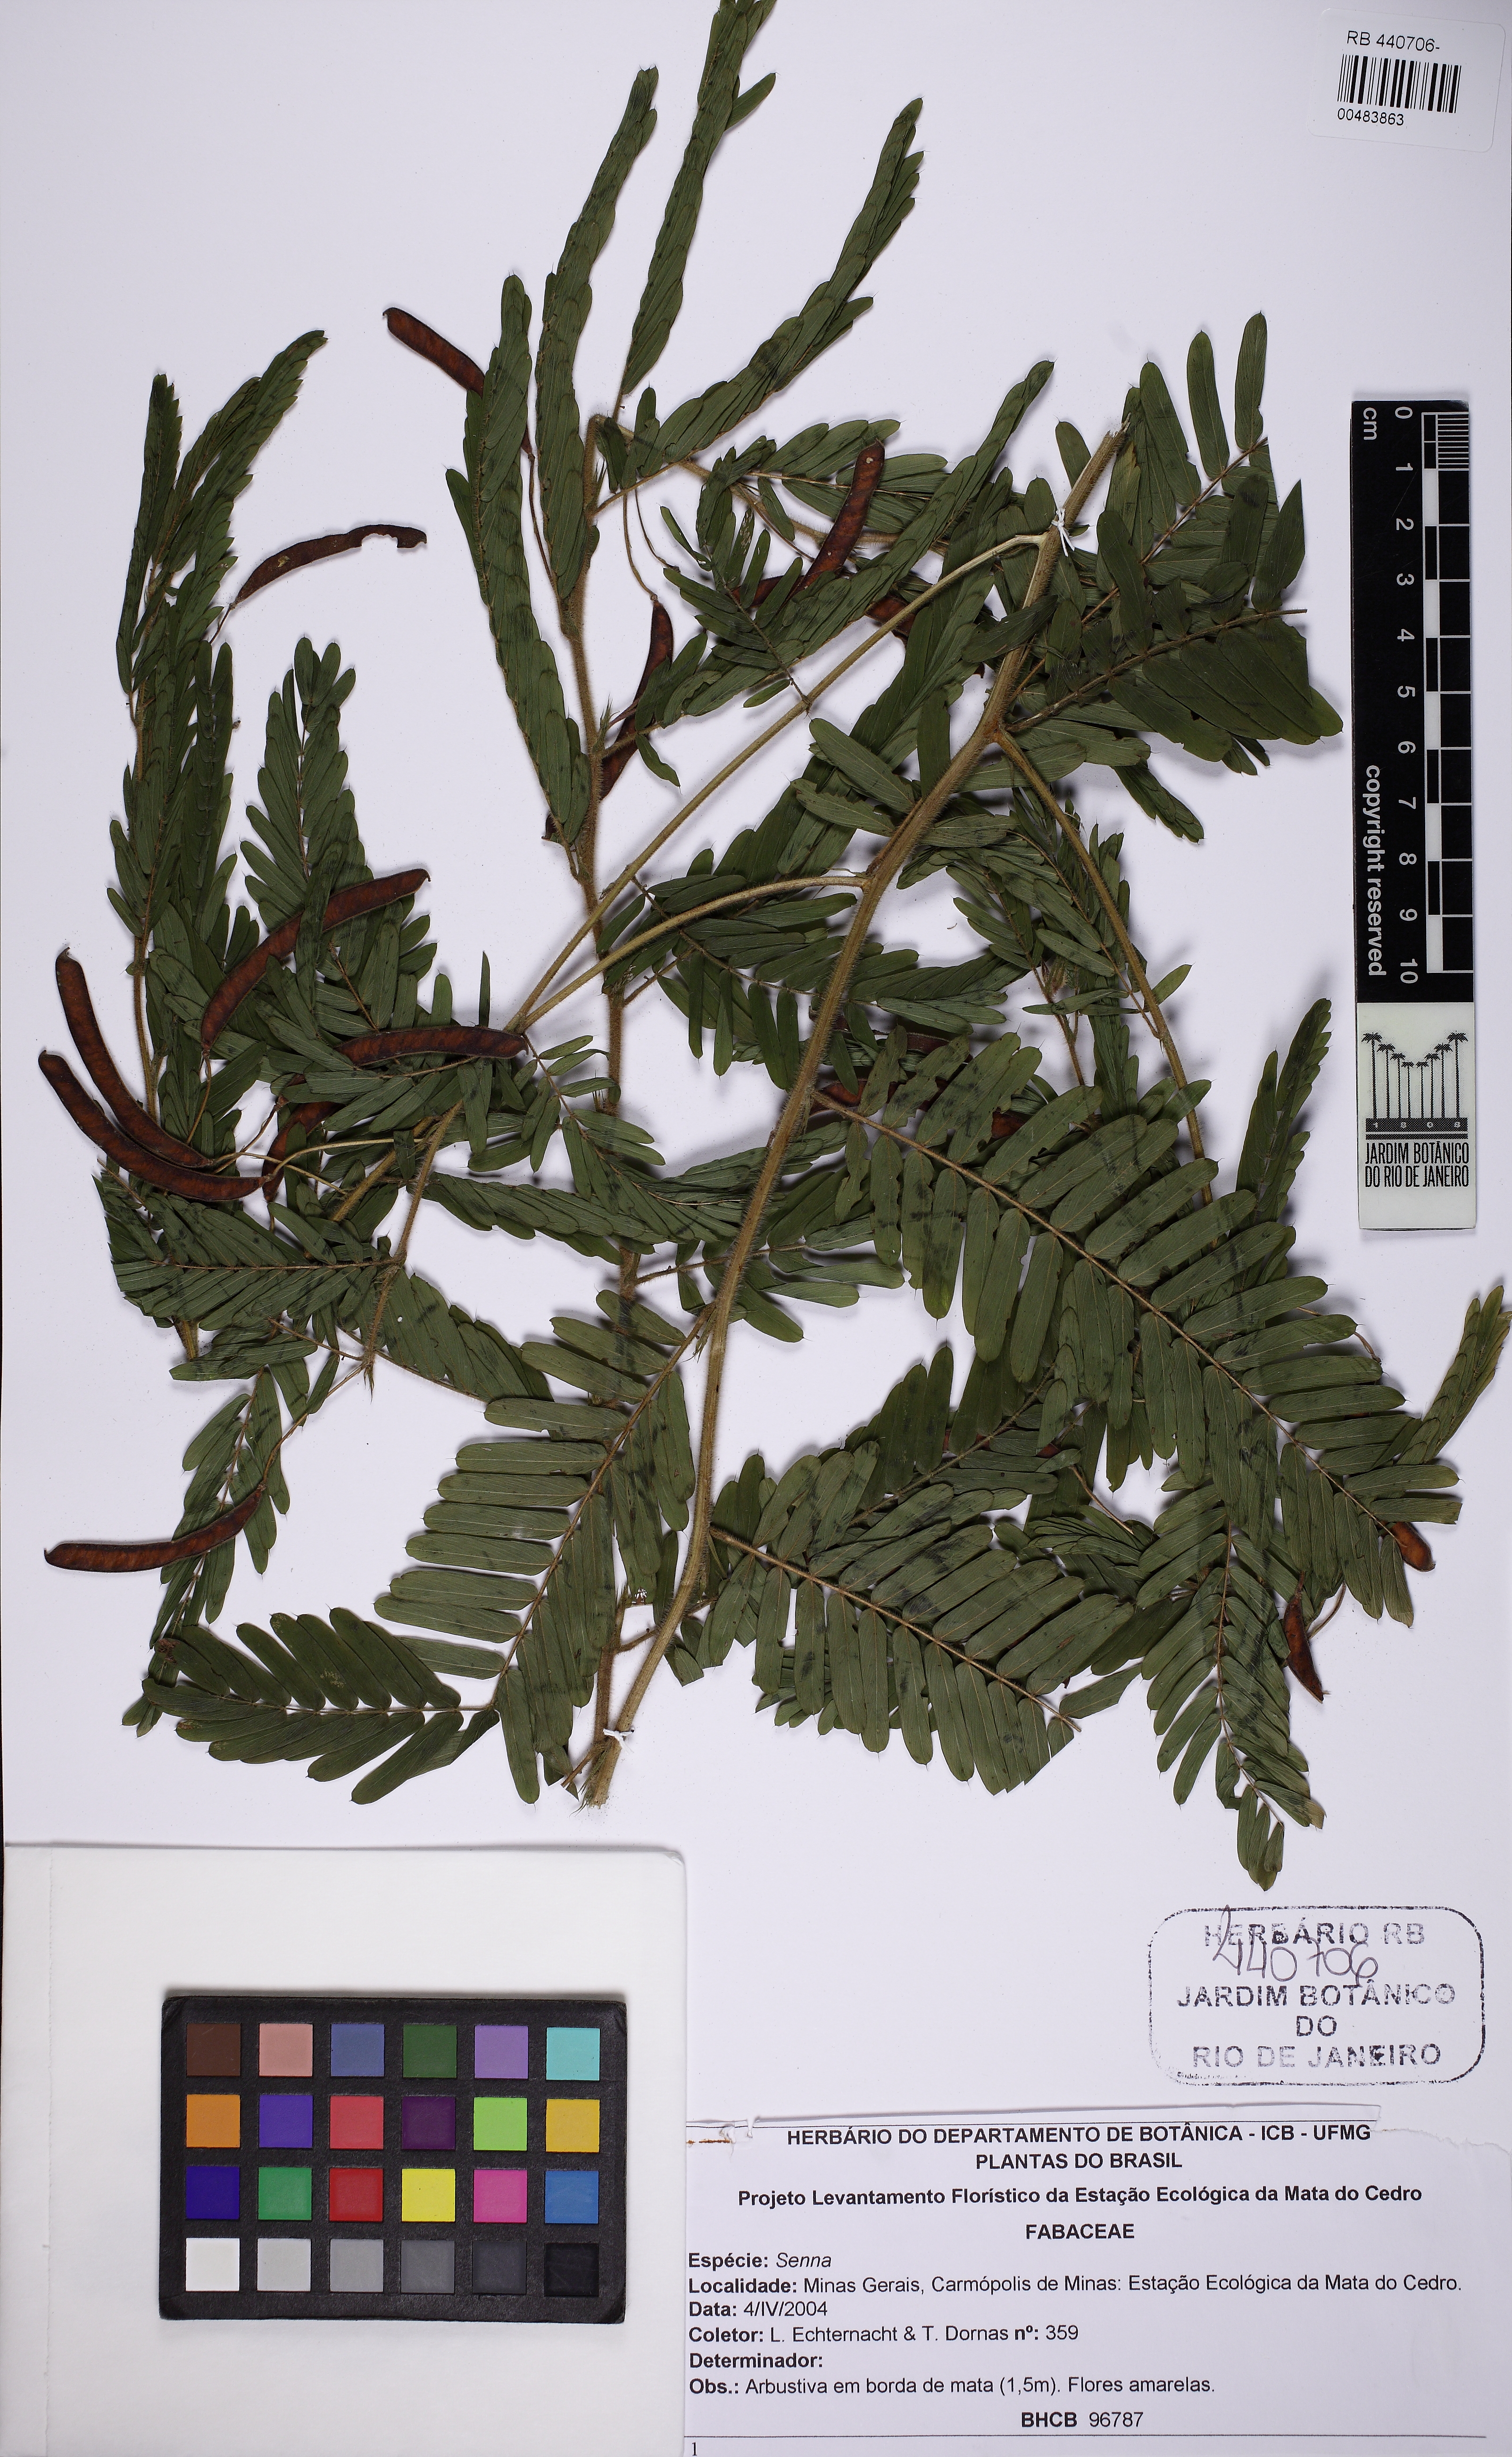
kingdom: Plantae
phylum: Tracheophyta
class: Magnoliopsida
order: Fabales
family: Fabaceae
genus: Chamaecrista
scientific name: Chamaecrista
